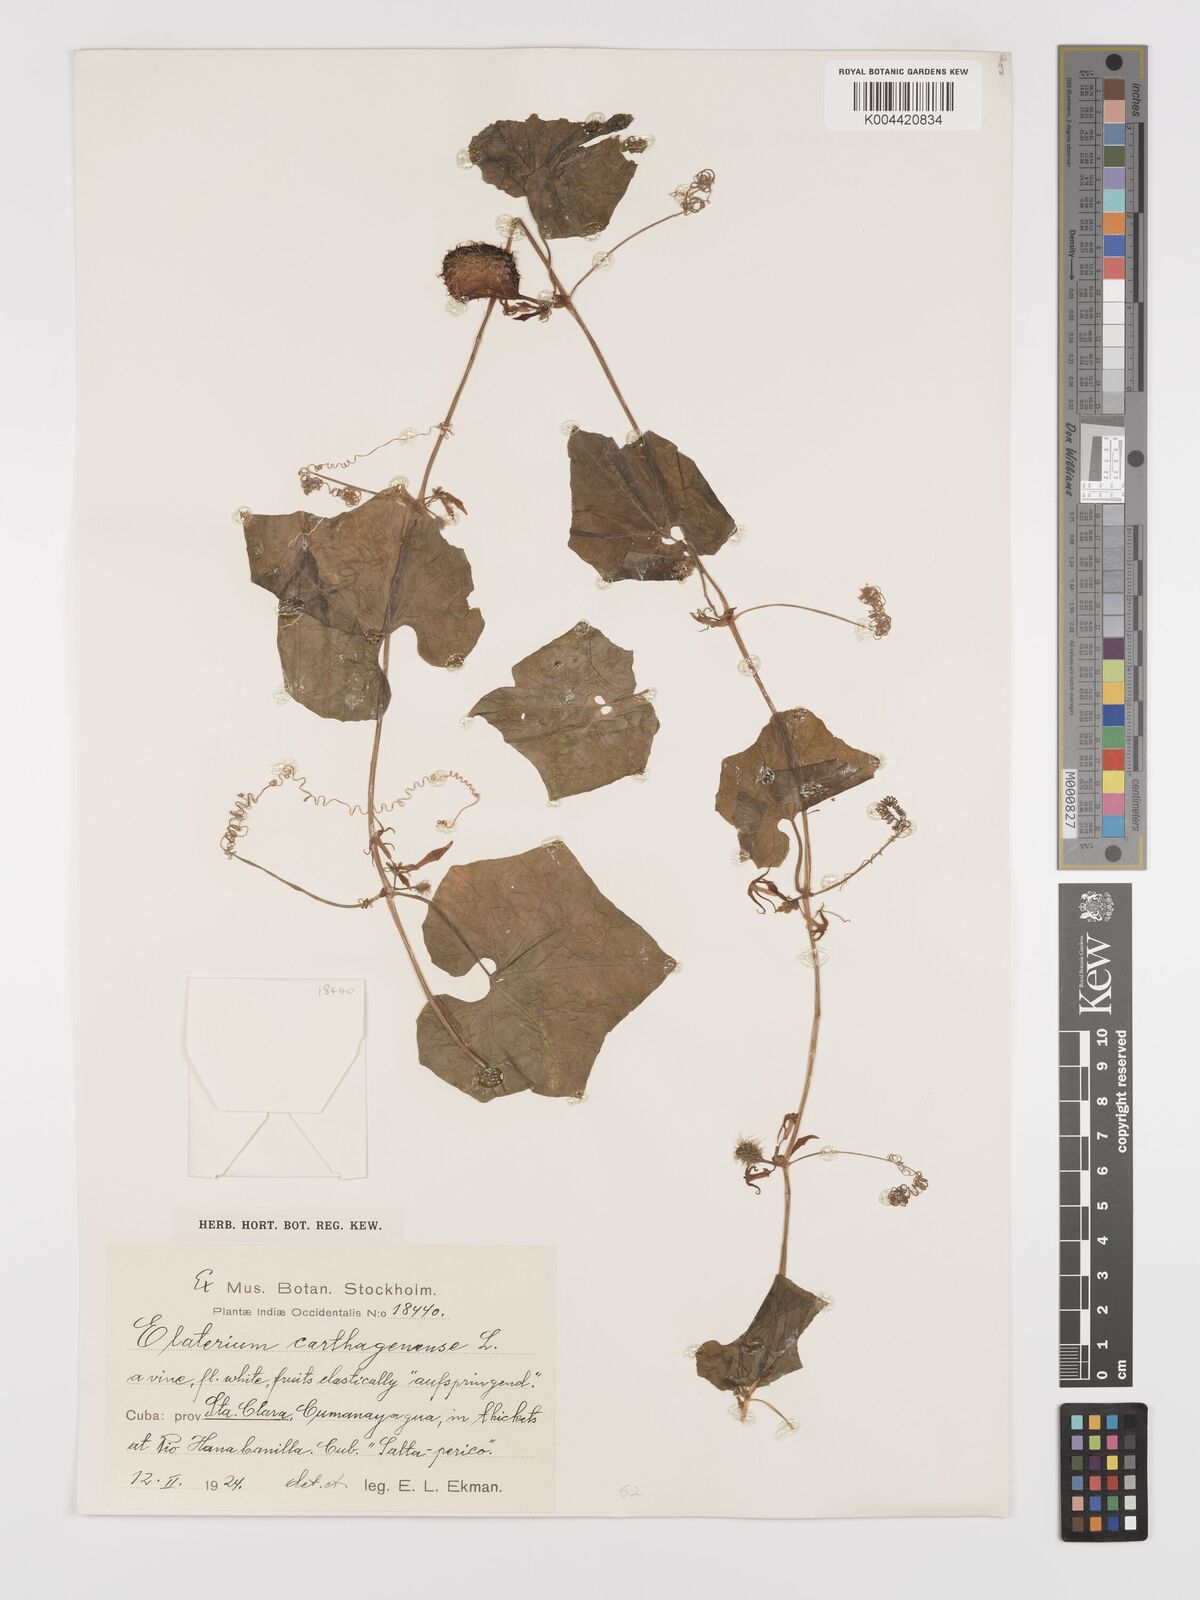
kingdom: Plantae
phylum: Tracheophyta
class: Magnoliopsida
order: Cucurbitales
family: Cucurbitaceae
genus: Cyclanthera
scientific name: Cyclanthera
